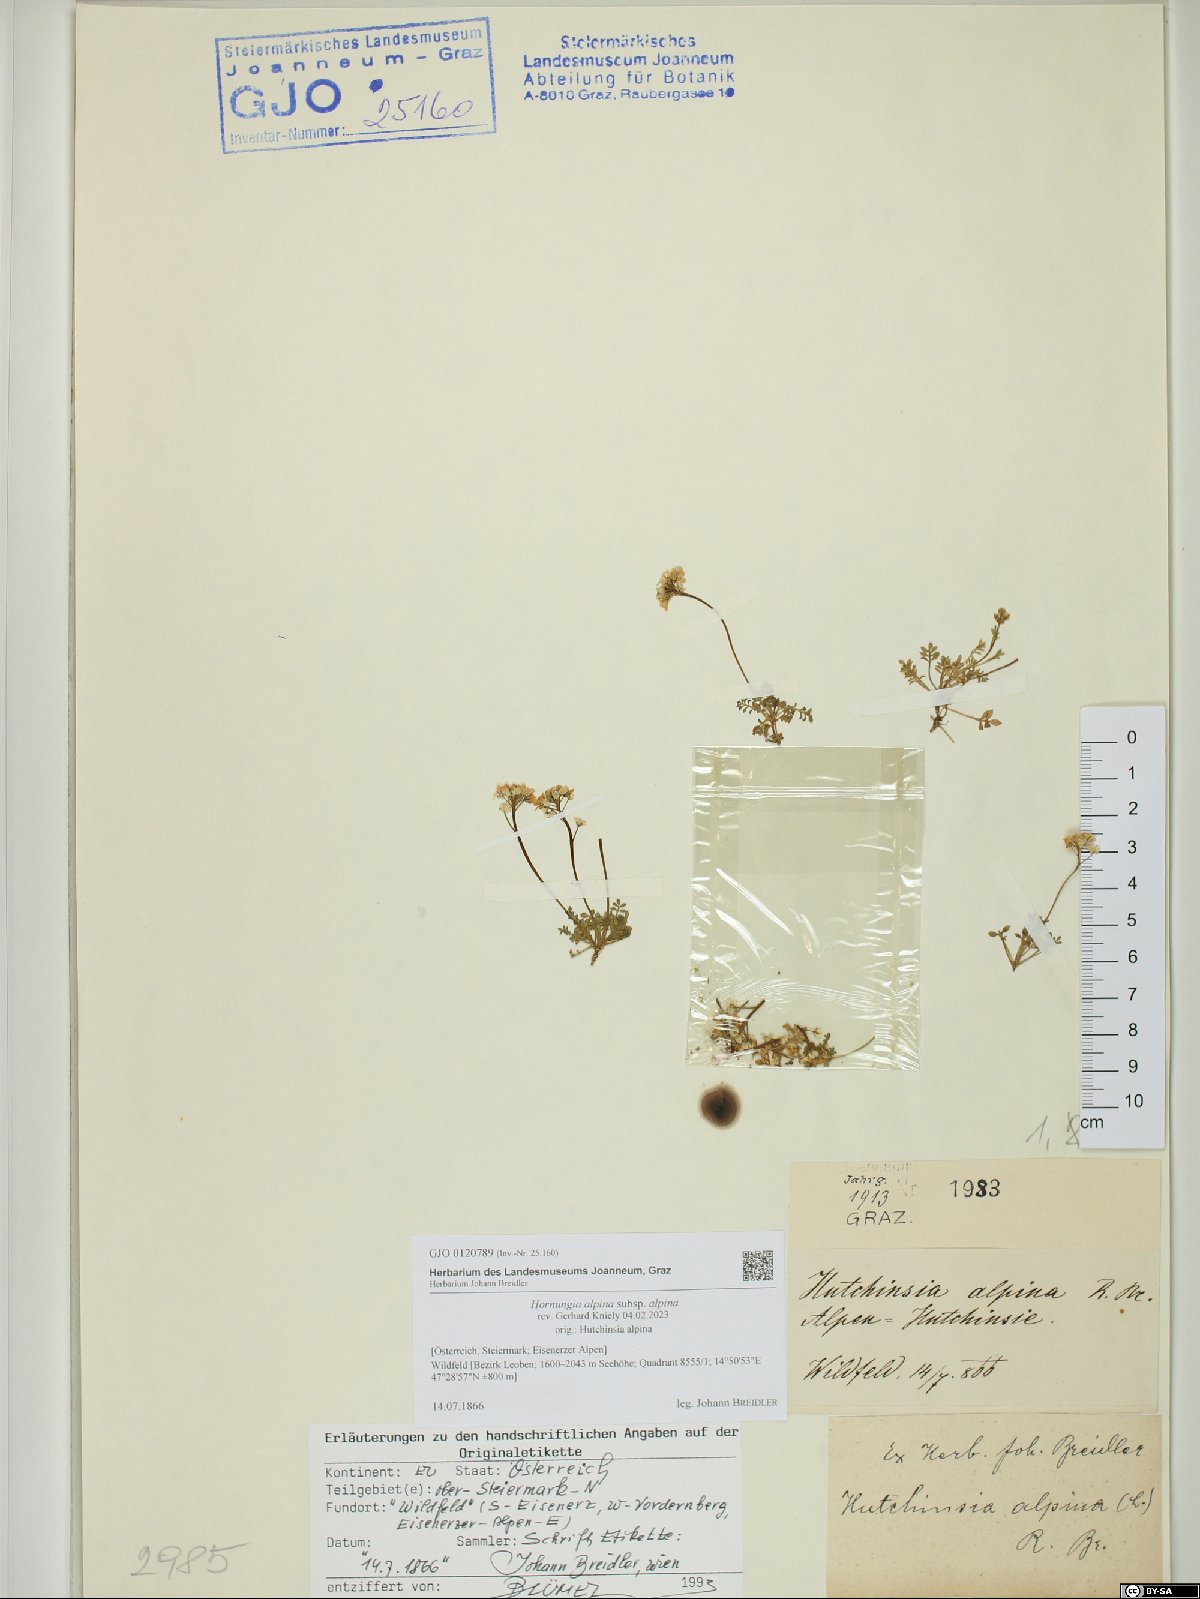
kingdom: Plantae
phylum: Tracheophyta
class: Magnoliopsida
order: Brassicales
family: Brassicaceae
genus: Hornungia
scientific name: Hornungia alpina
